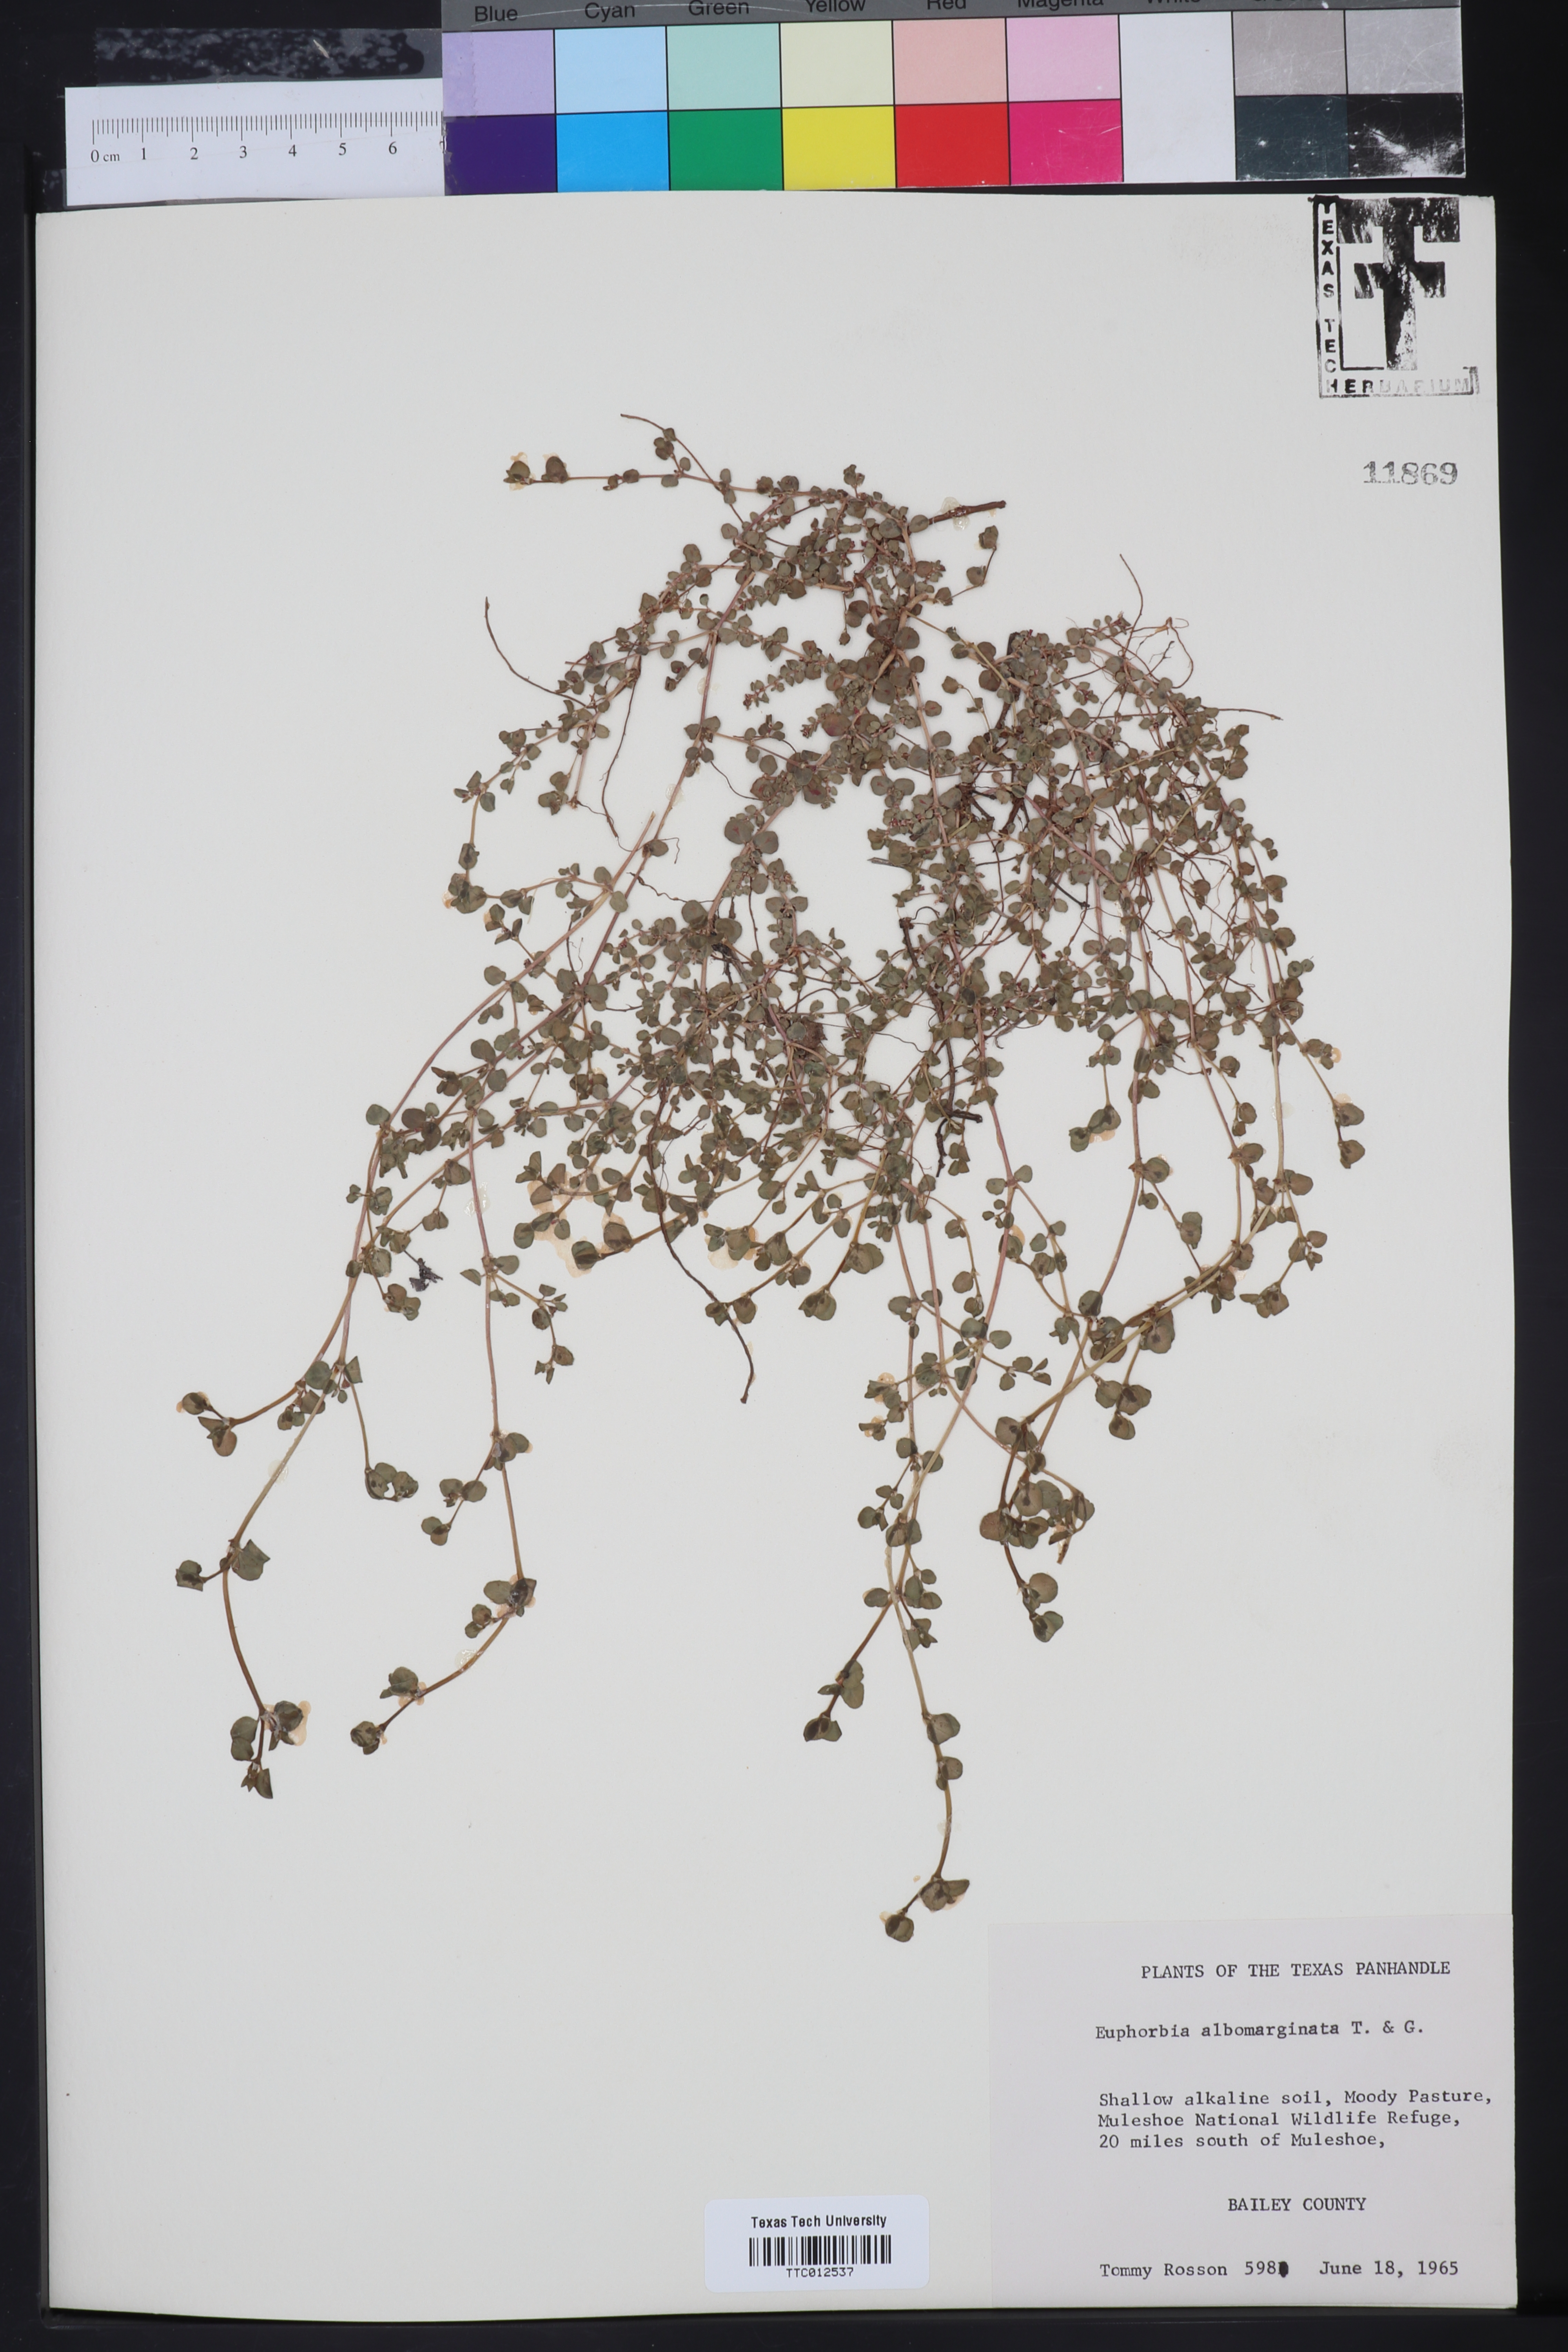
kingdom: Plantae
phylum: Tracheophyta
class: Magnoliopsida
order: Malpighiales
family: Euphorbiaceae
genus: Euphorbia
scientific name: Euphorbia albomarginata
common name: Whitemargin sandmat
